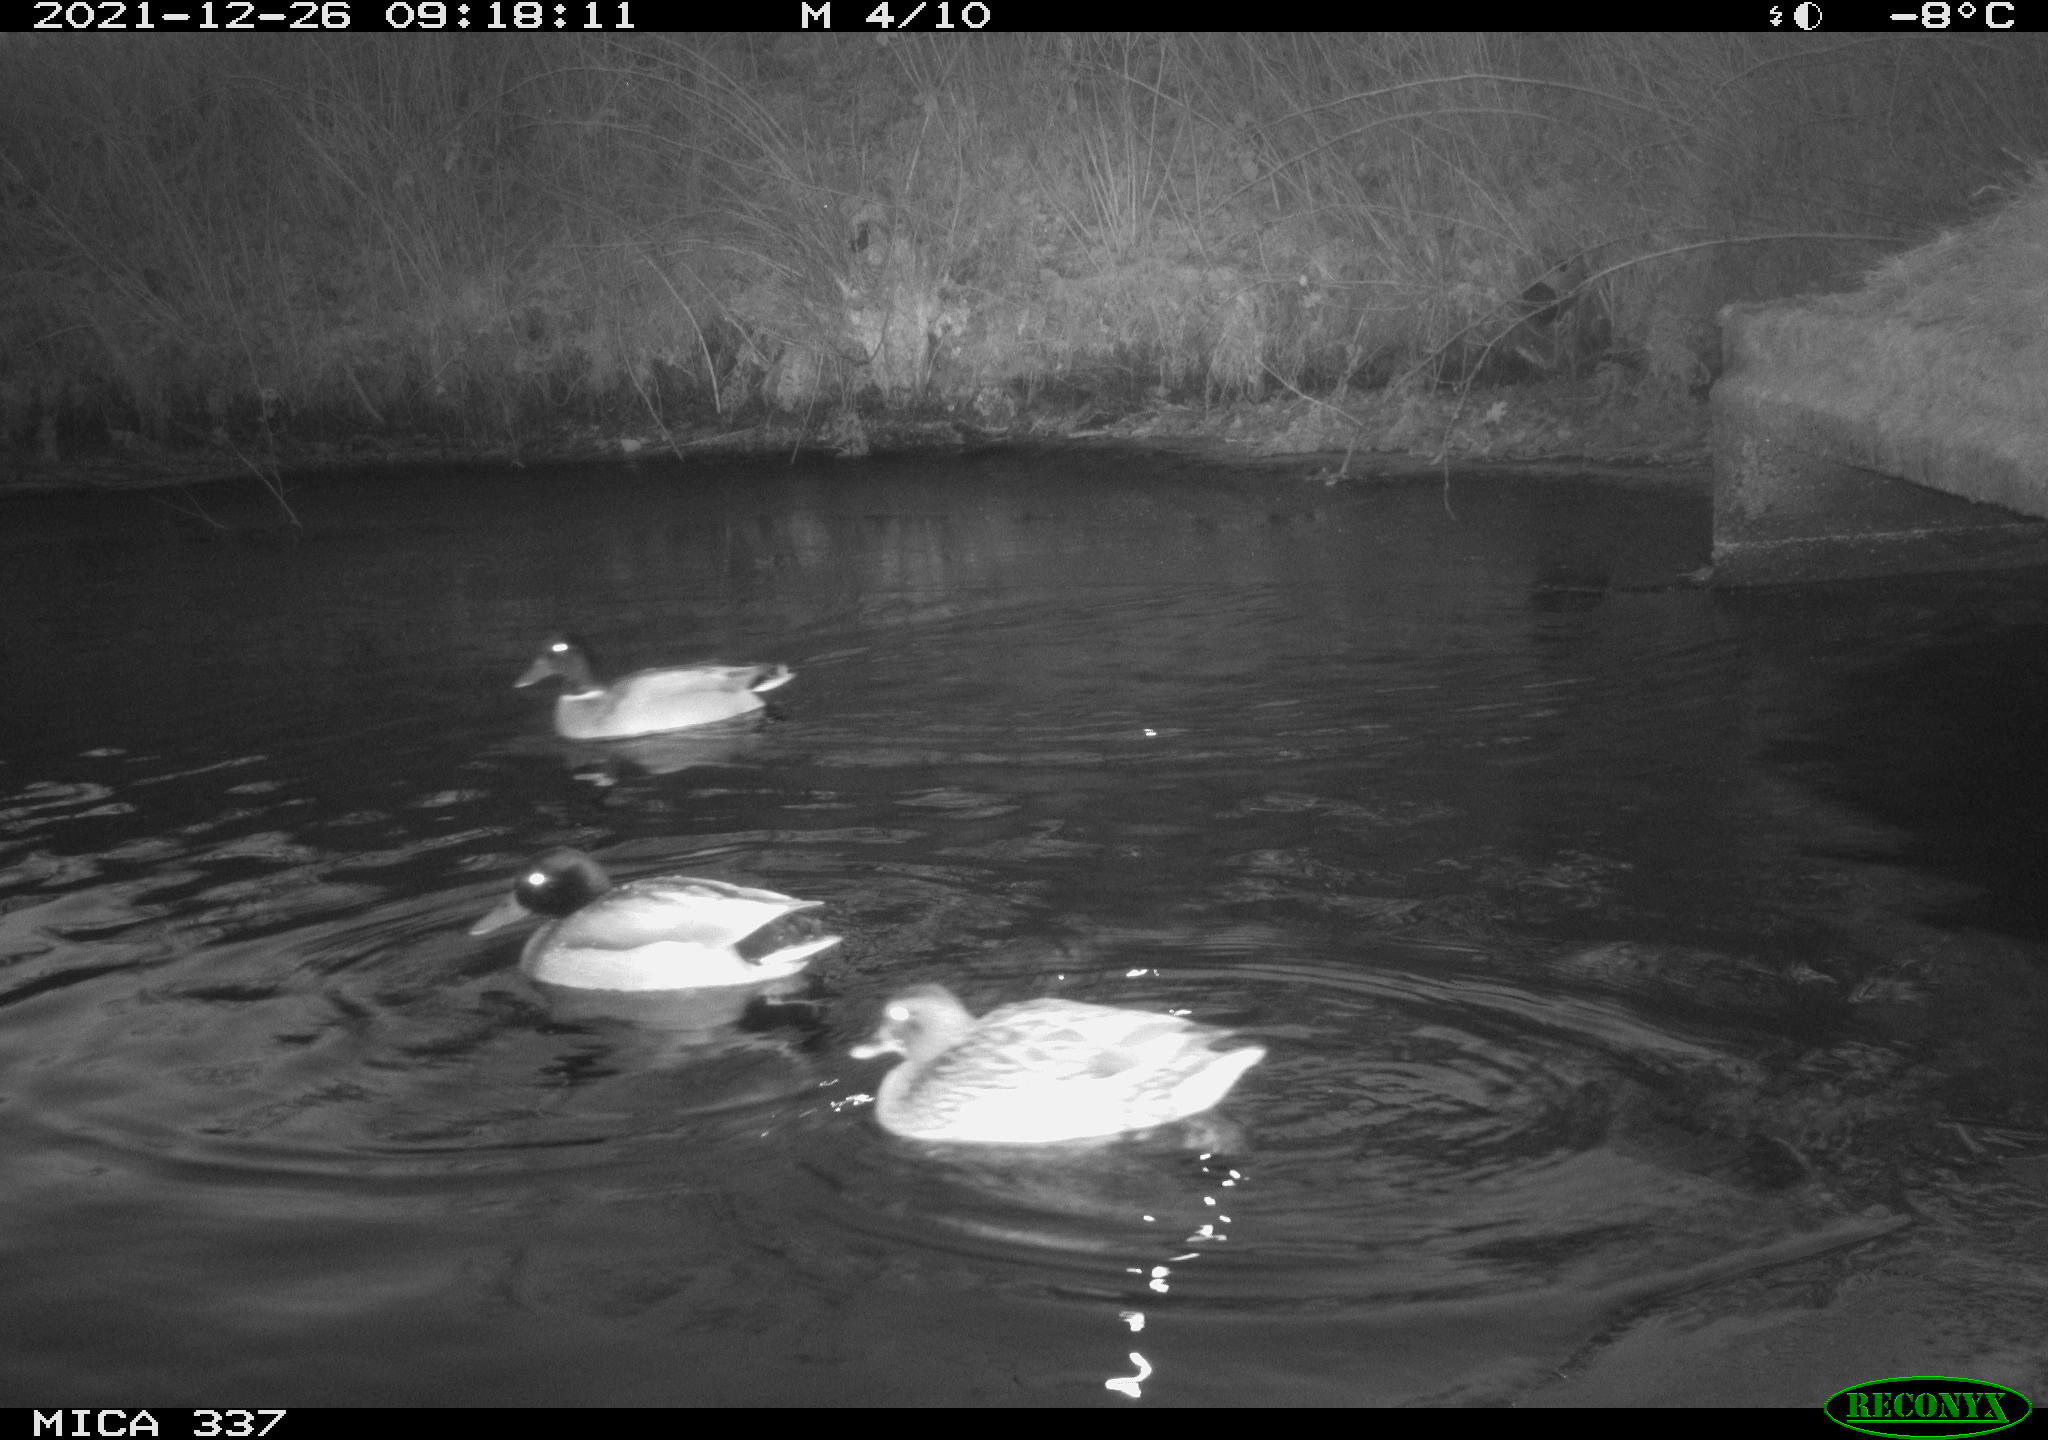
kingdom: Animalia
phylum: Chordata
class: Aves
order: Anseriformes
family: Anatidae
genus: Anas
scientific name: Anas platyrhynchos
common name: Mallard
